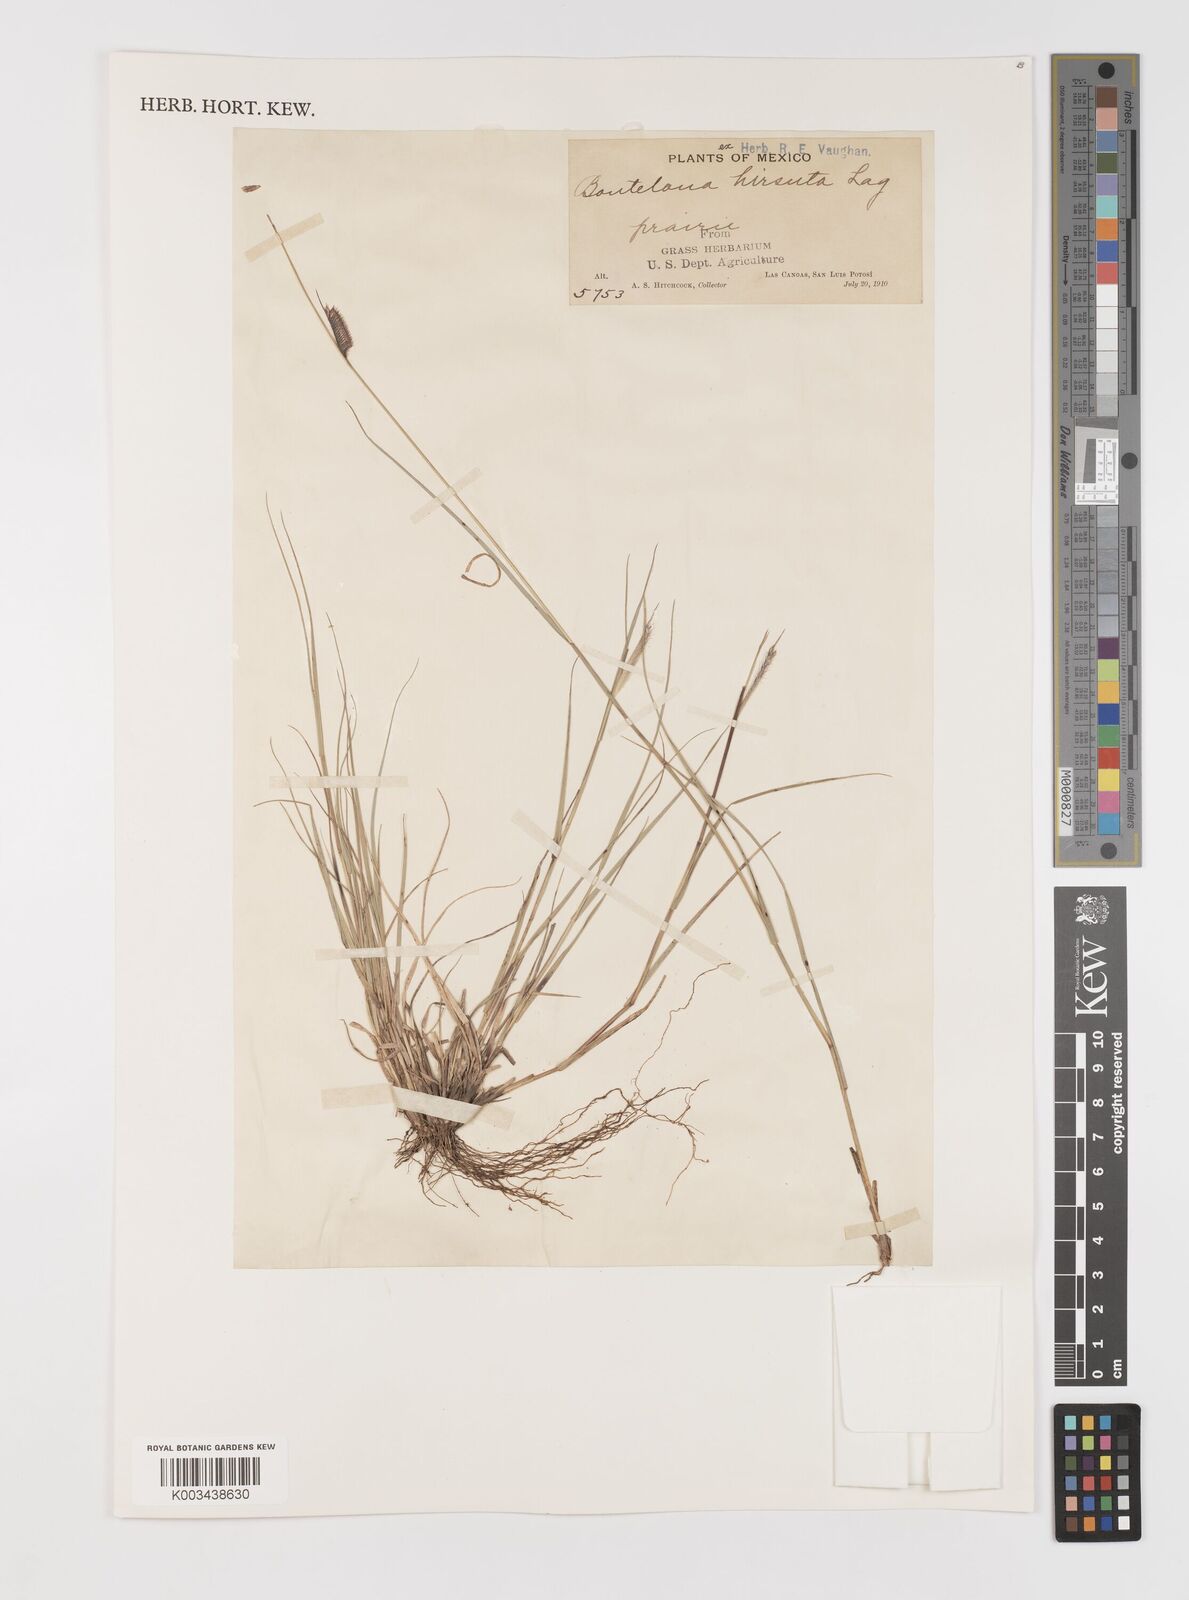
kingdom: Plantae
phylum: Tracheophyta
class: Liliopsida
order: Poales
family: Poaceae
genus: Bouteloua
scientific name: Bouteloua hirsuta
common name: Hairy grama
